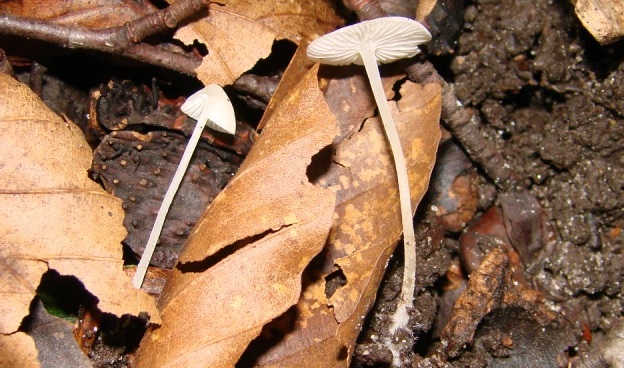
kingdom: Fungi
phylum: Basidiomycota
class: Agaricomycetes
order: Agaricales
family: Mycenaceae
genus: Hemimycena
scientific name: Hemimycena cucullata
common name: tætbladet huesvamp
